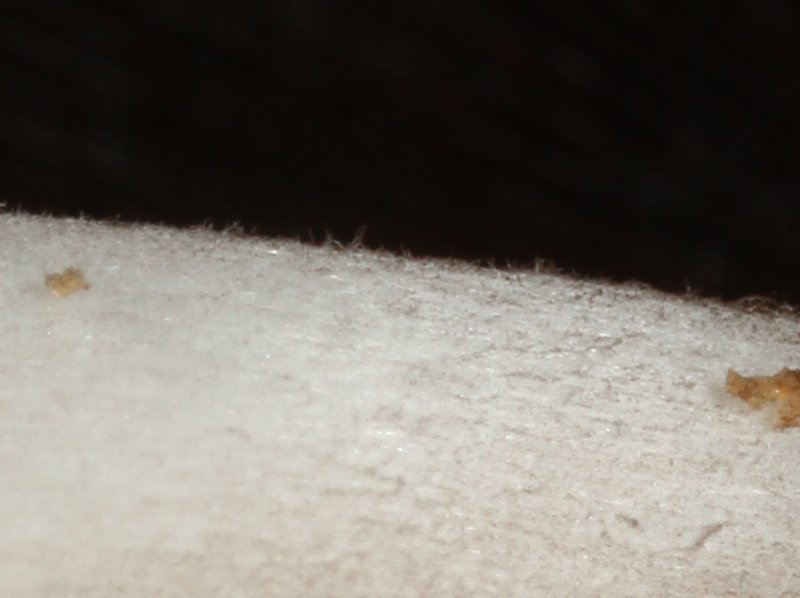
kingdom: Fungi
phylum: Basidiomycota
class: Agaricomycetes
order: Agaricales
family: Psathyrellaceae
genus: Coprinopsis
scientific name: Coprinopsis romagnesiana
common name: brunskællet blækhat
